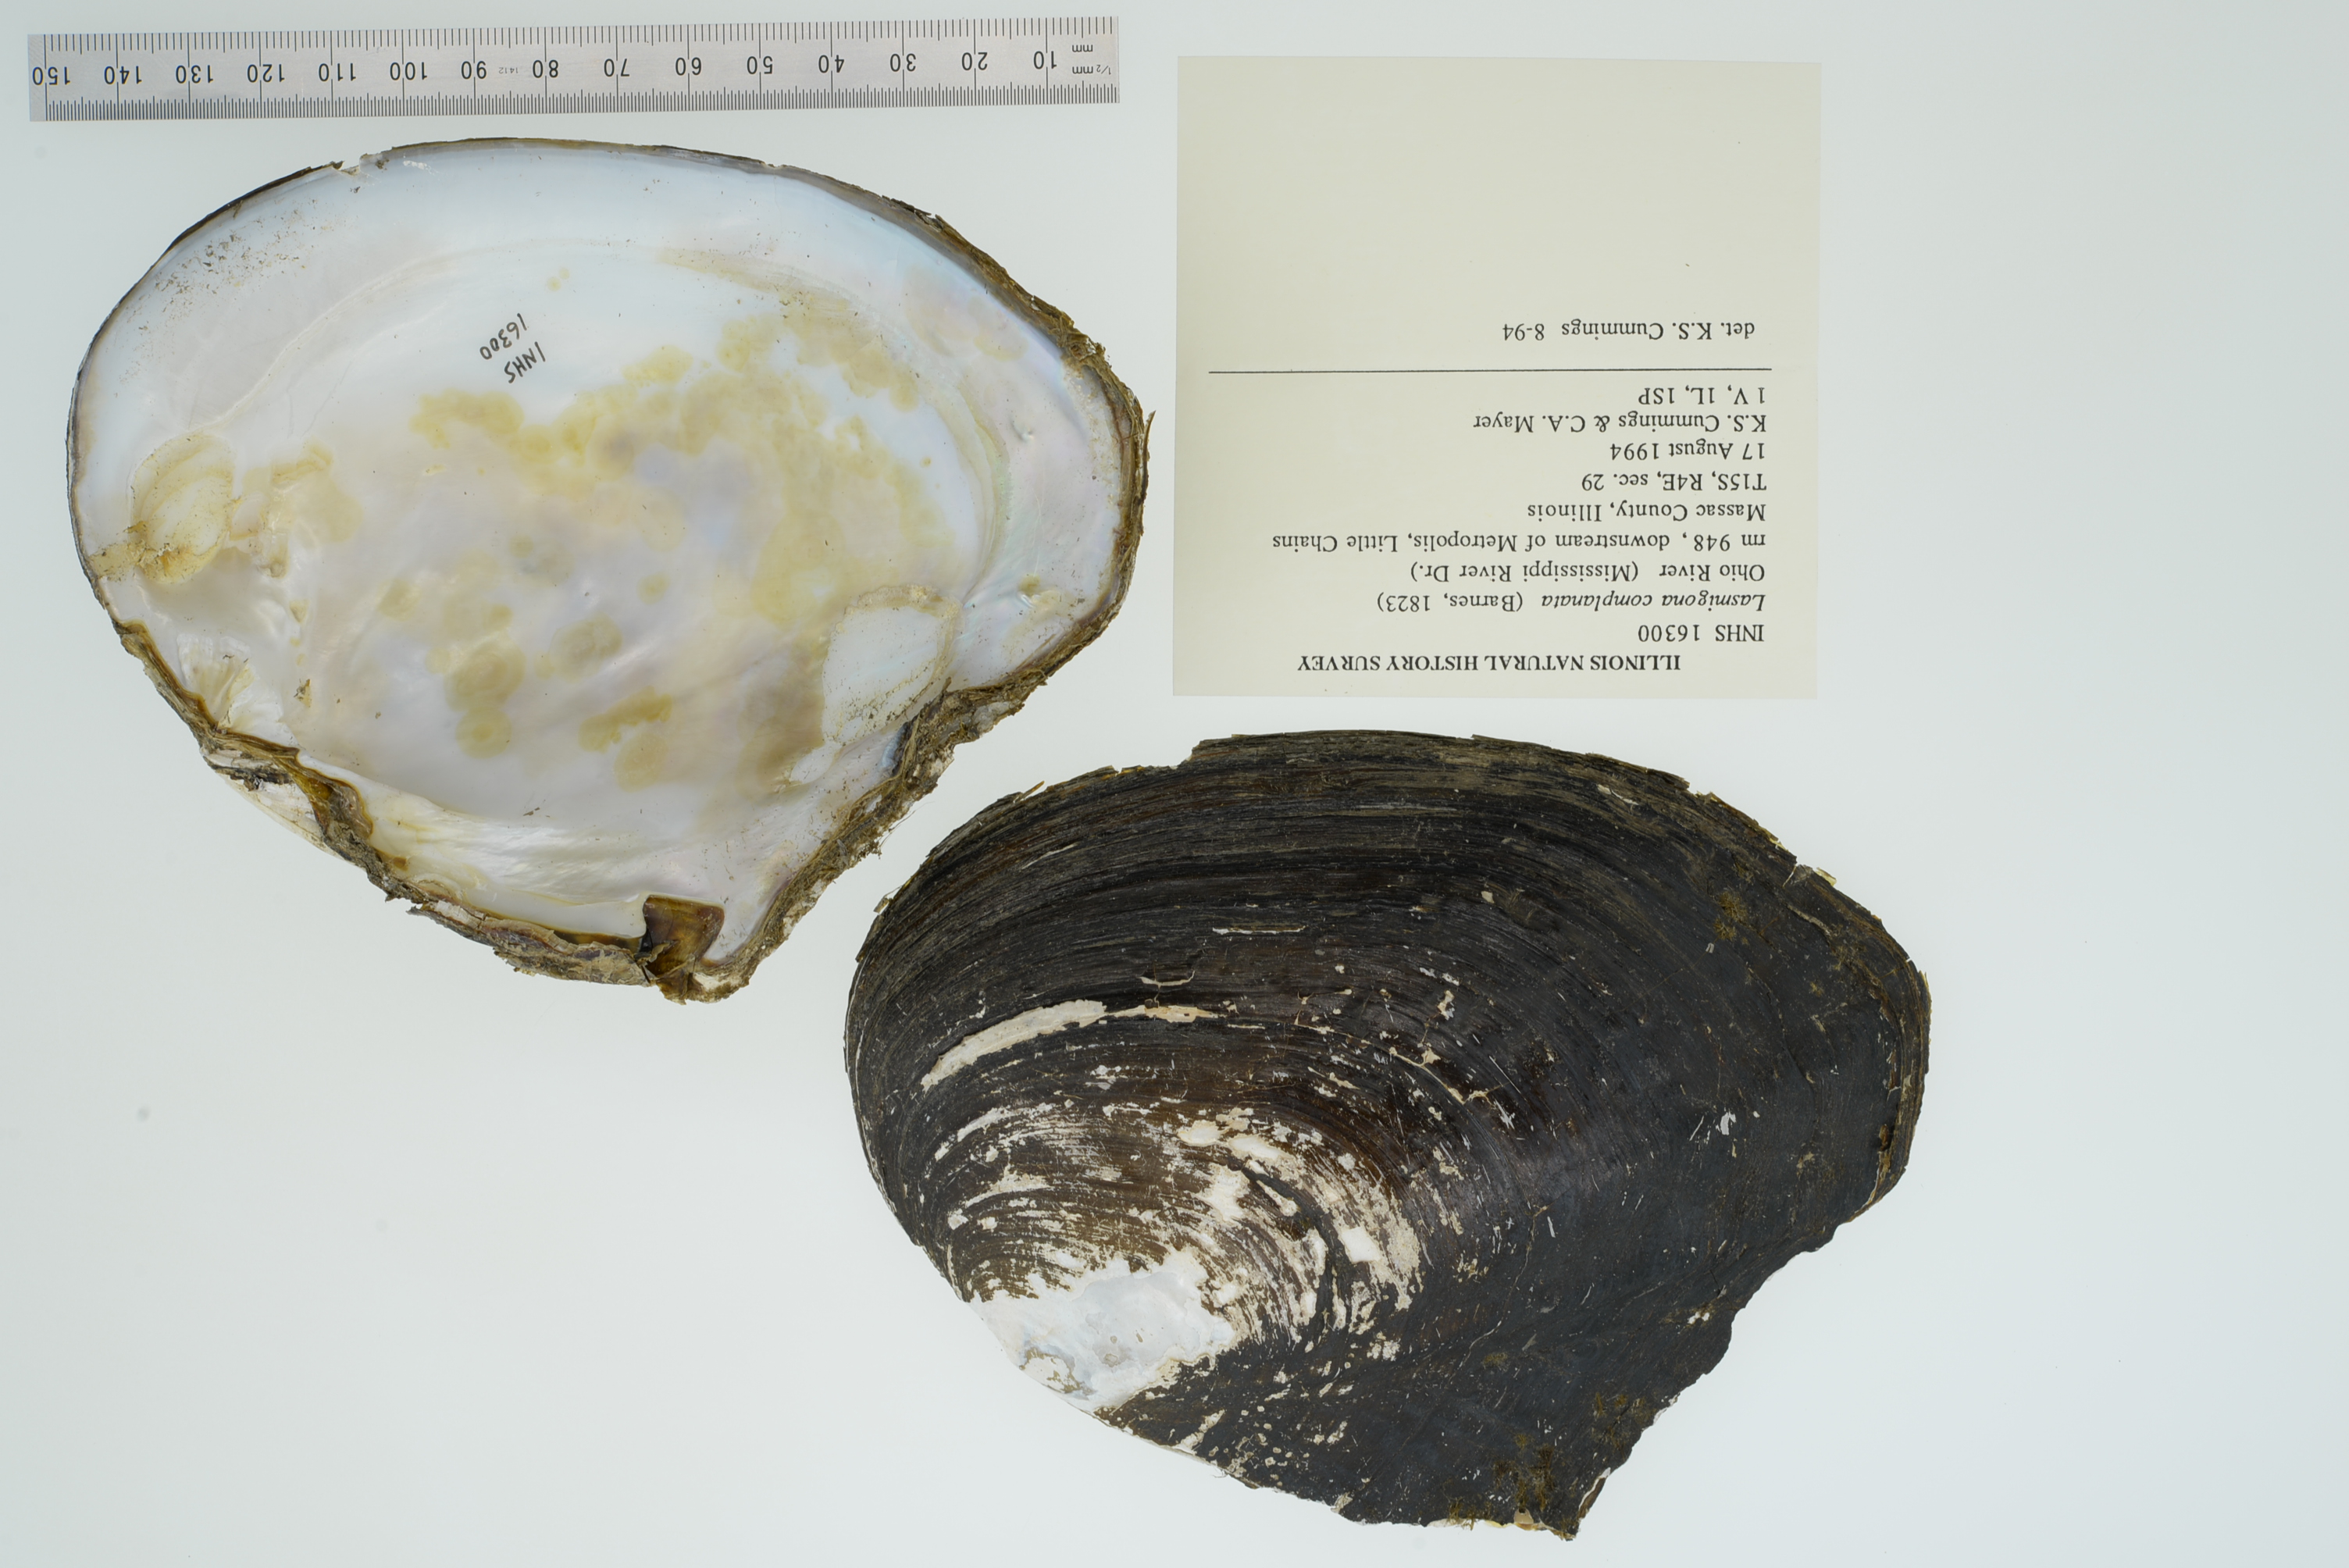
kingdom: Animalia
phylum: Mollusca
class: Bivalvia
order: Unionida
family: Unionidae
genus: Lasmigona
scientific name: Lasmigona complanata
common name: White heelsplitter
